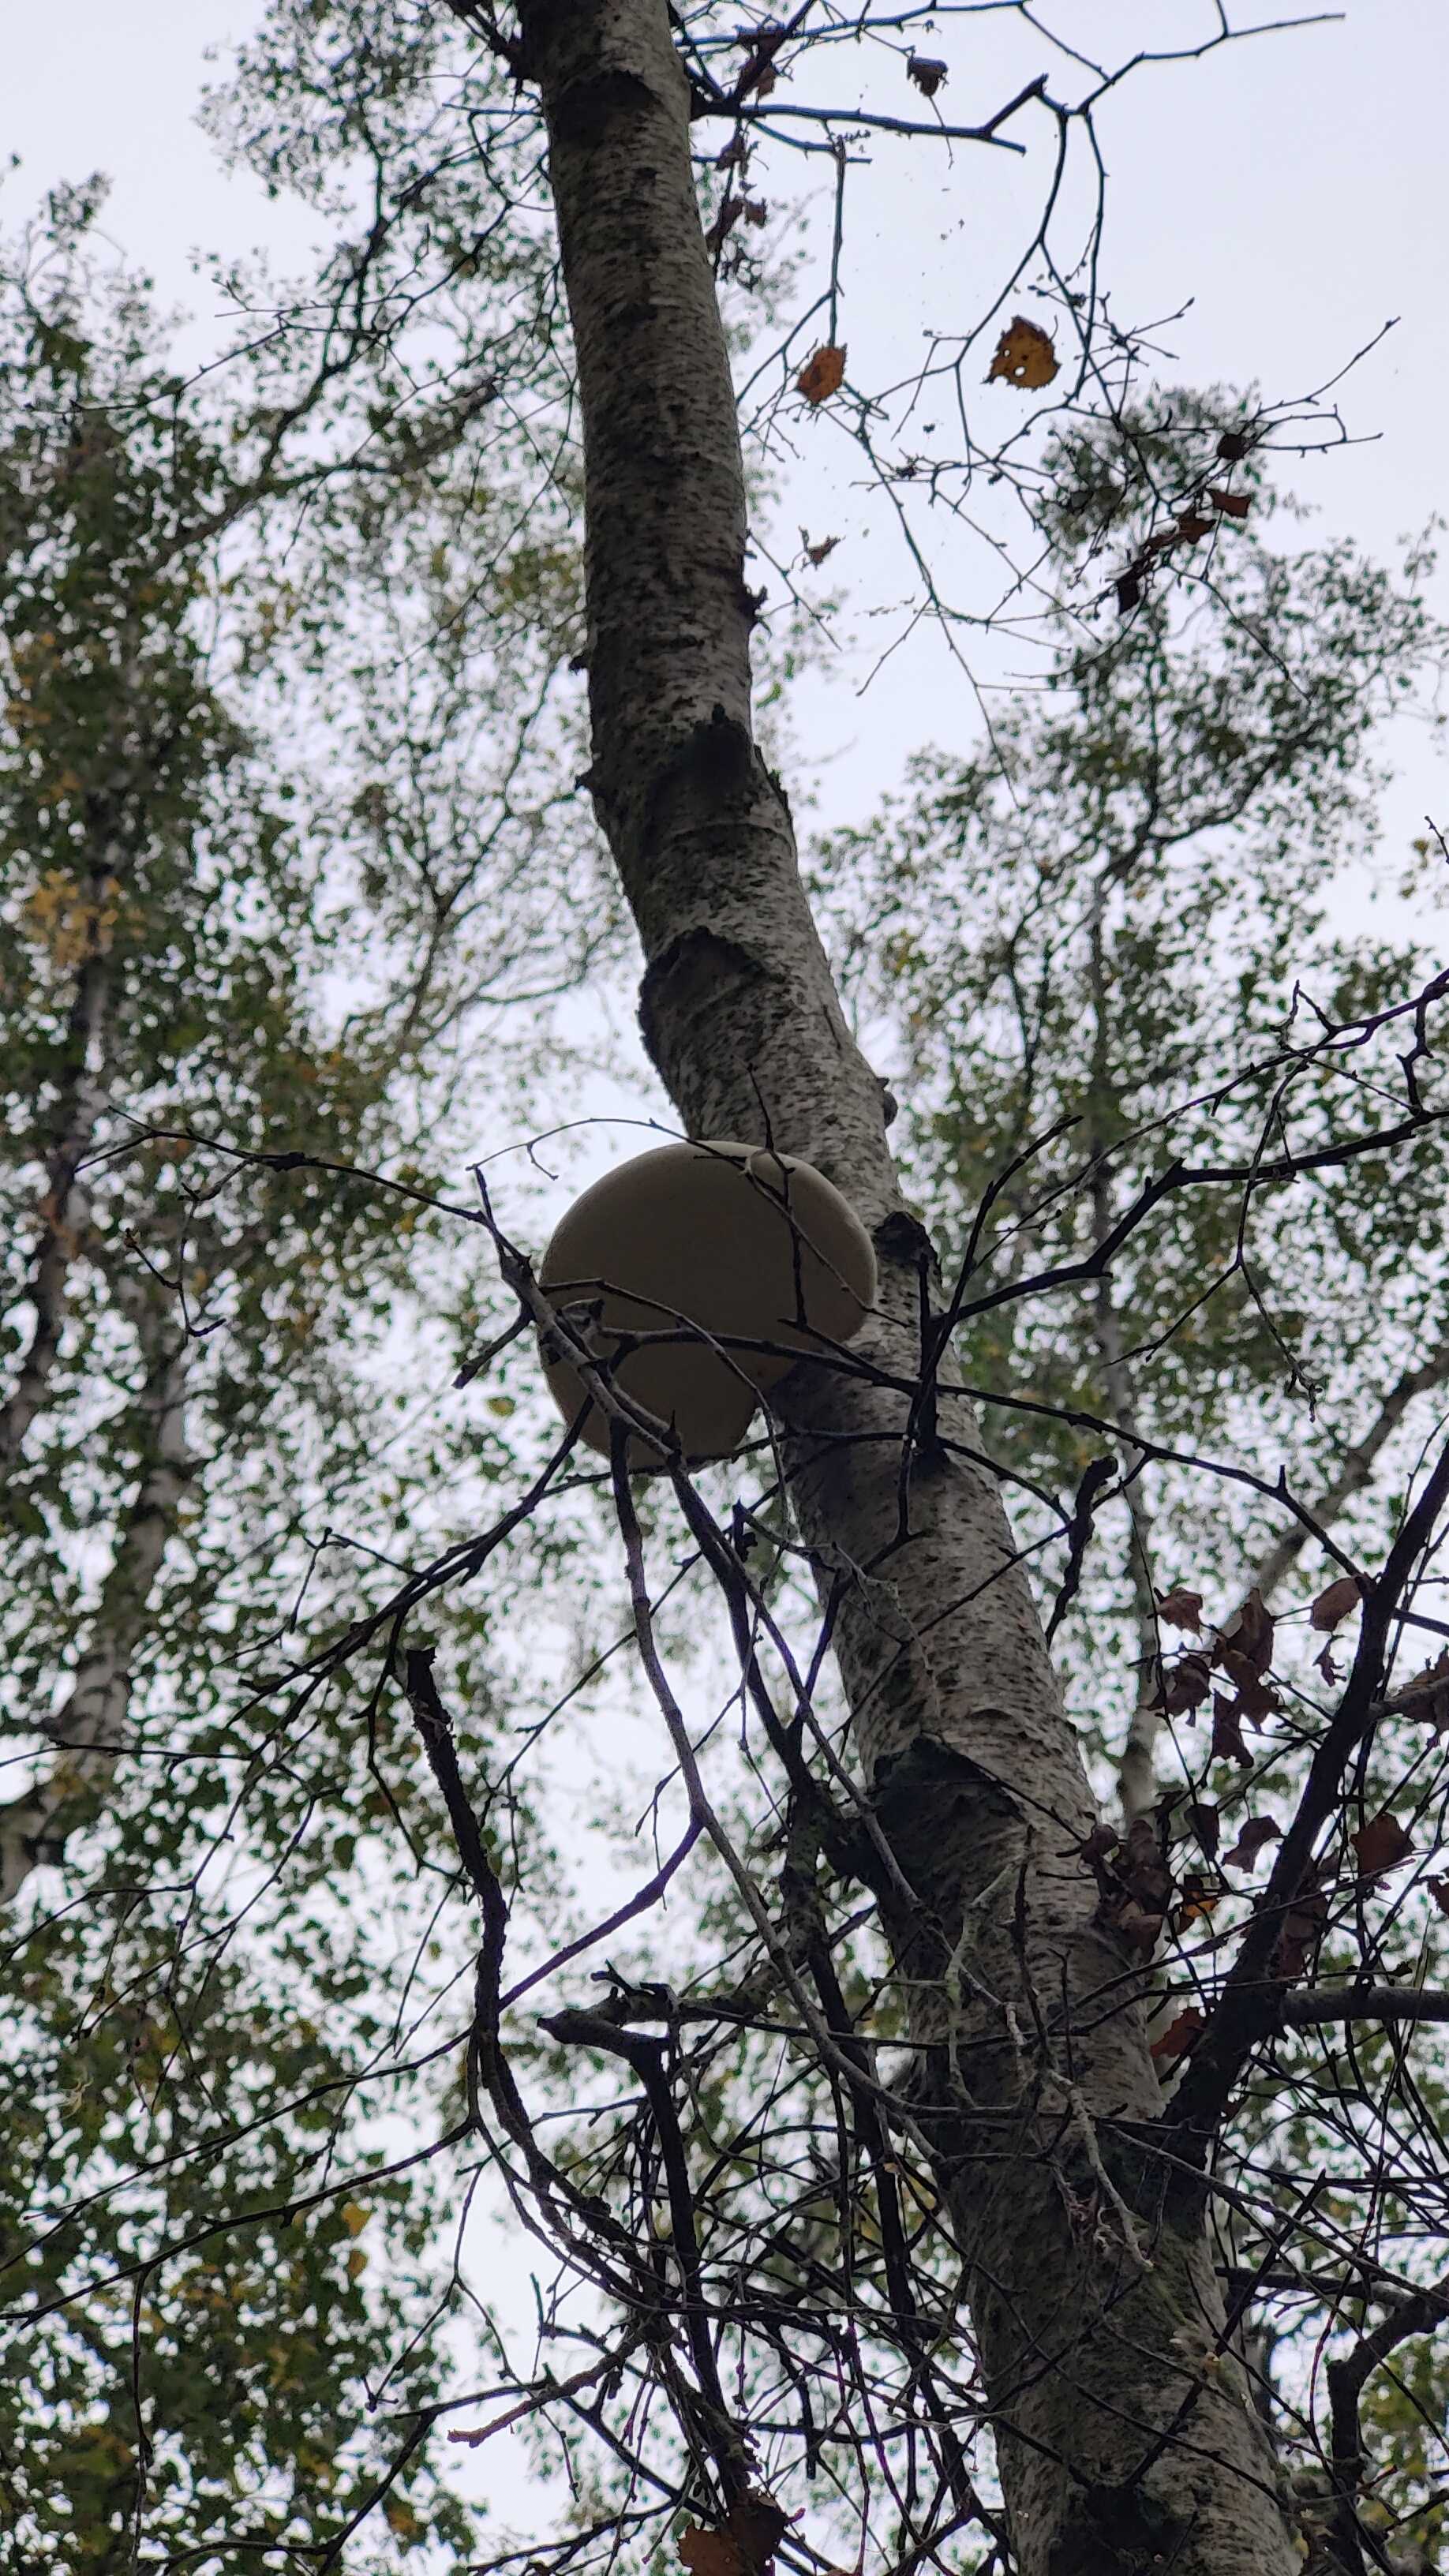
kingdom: Fungi
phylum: Basidiomycota
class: Agaricomycetes
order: Polyporales
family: Fomitopsidaceae
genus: Fomitopsis
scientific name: Fomitopsis betulina
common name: birkeporesvamp
